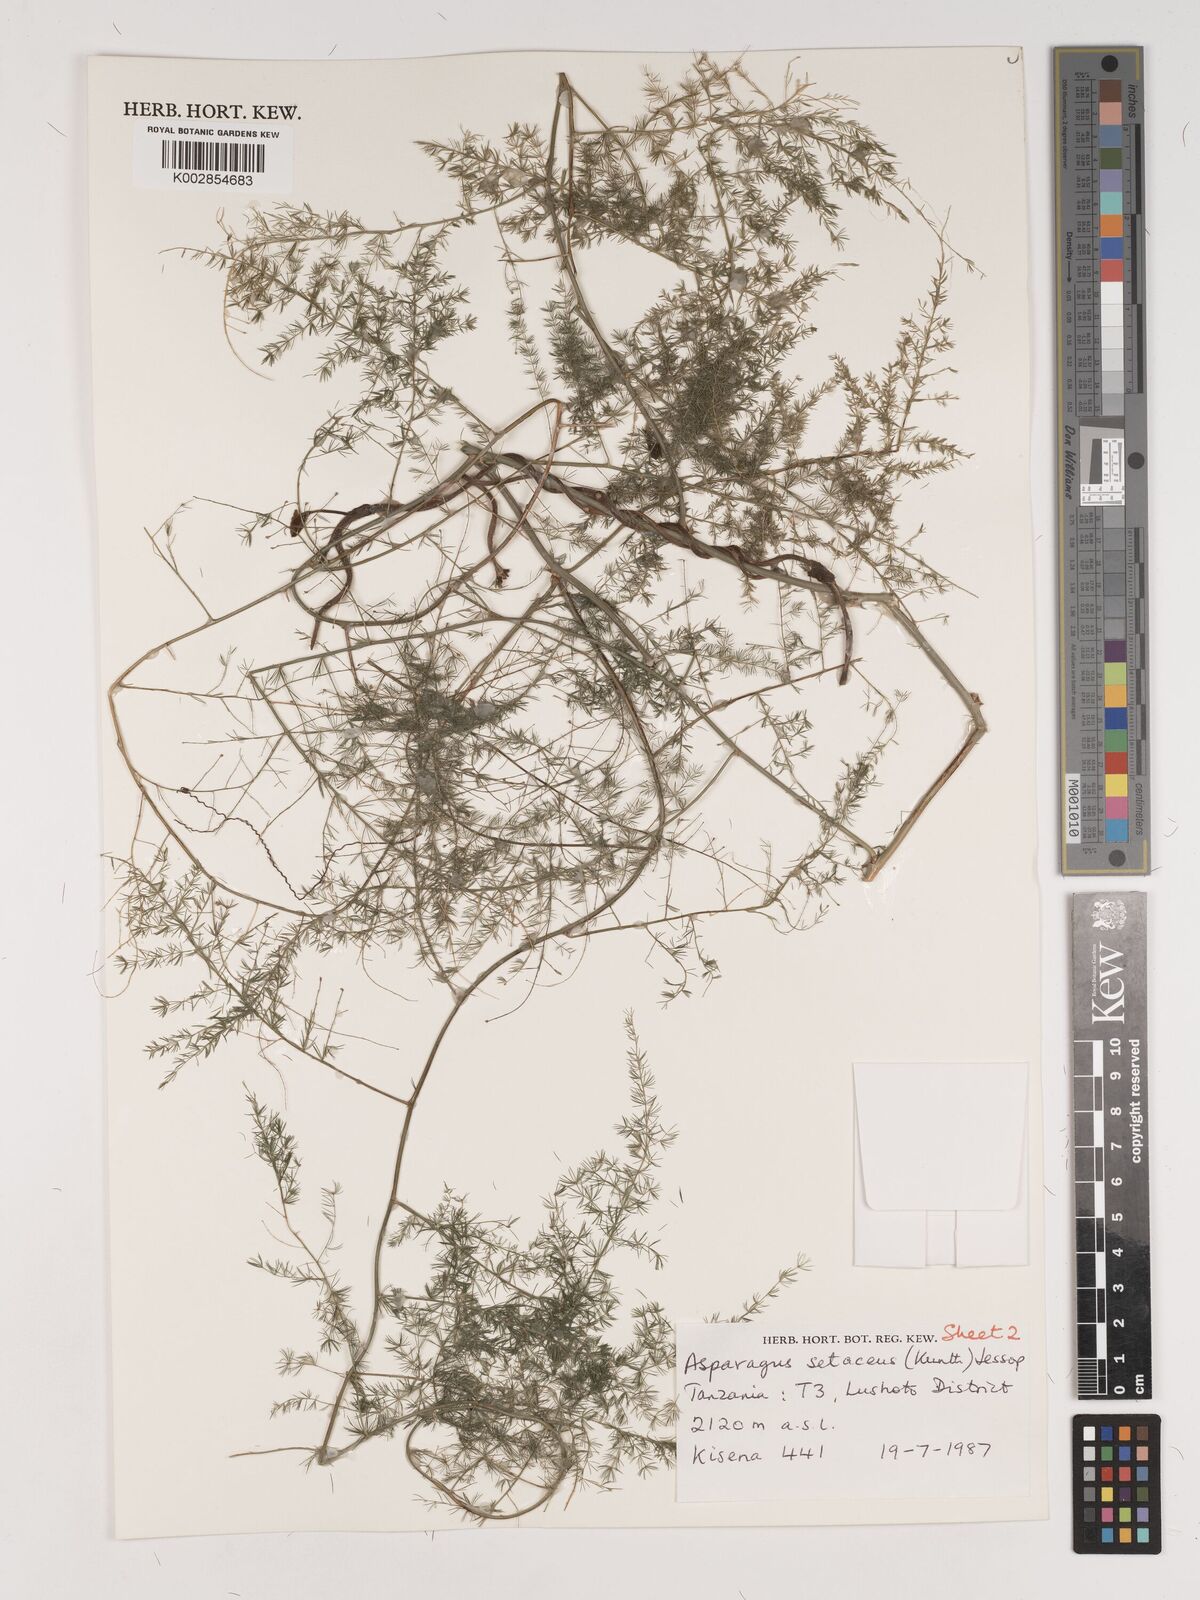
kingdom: Plantae
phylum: Tracheophyta
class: Liliopsida
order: Asparagales
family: Asparagaceae
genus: Asparagus
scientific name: Asparagus setaceus
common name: Common asparagus fern
